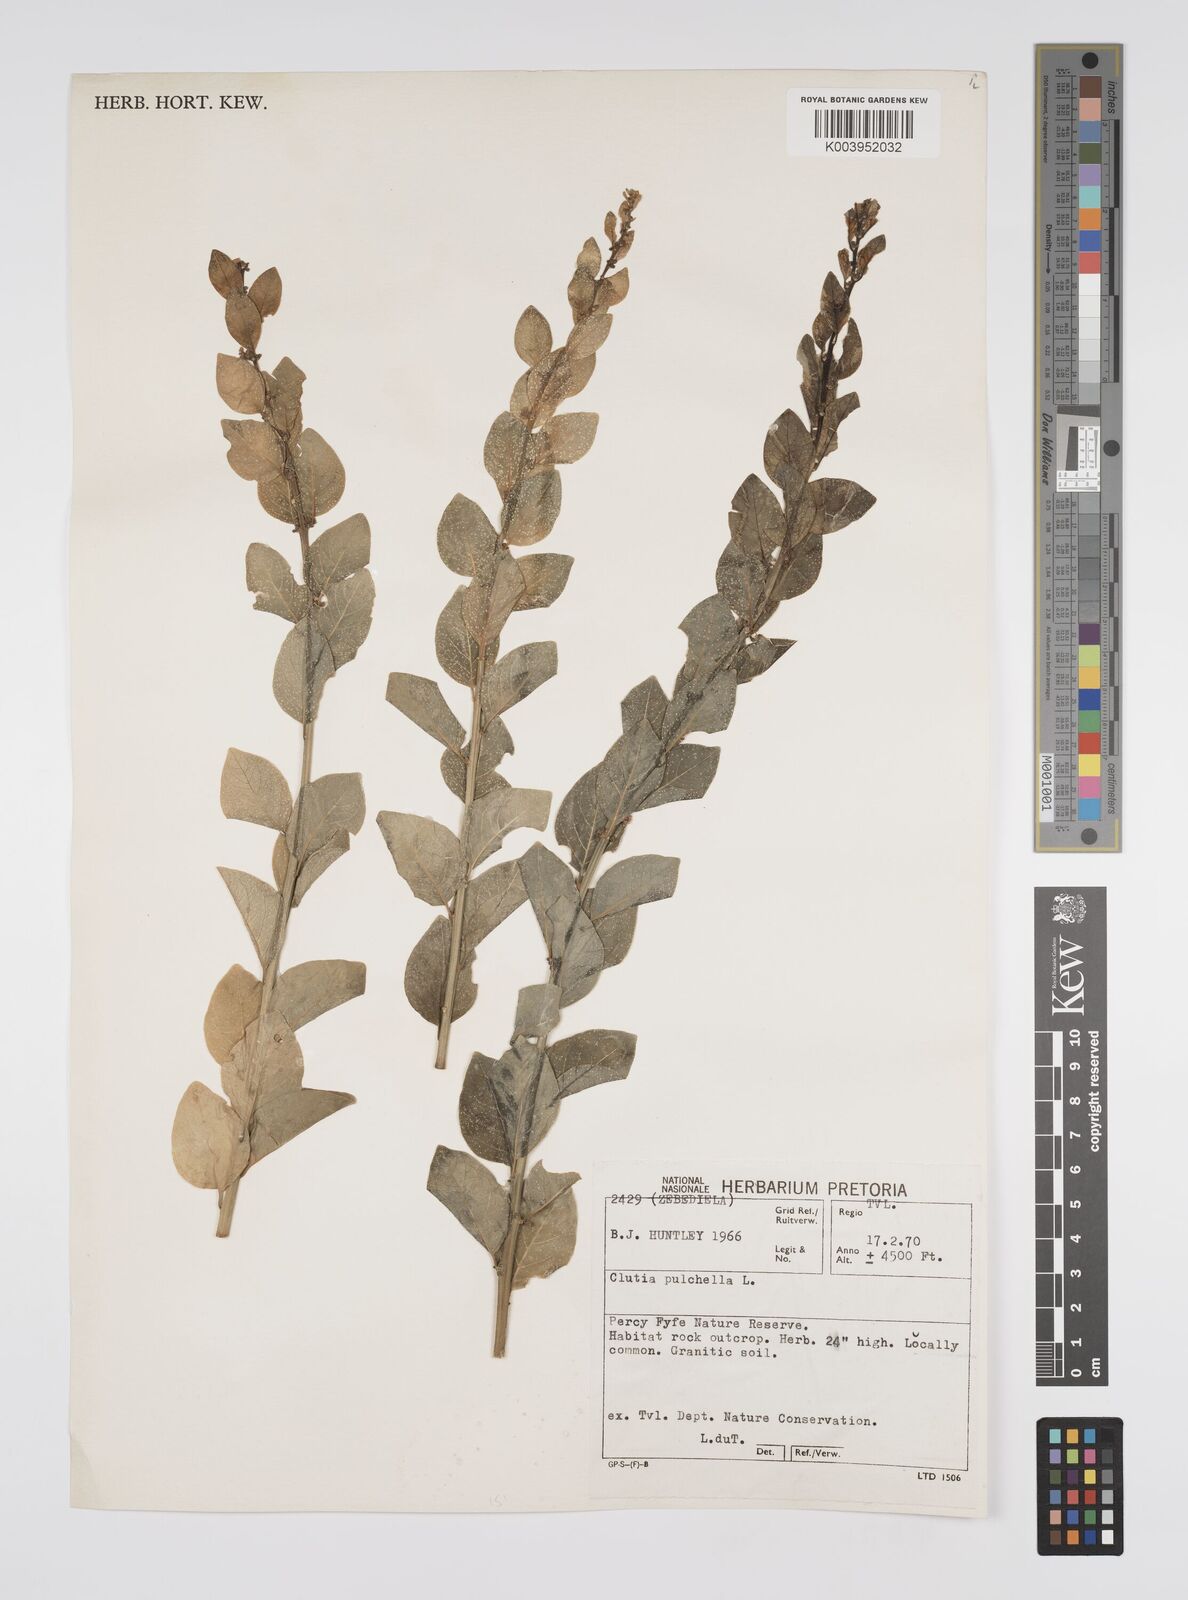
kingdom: Plantae
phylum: Tracheophyta
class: Magnoliopsida
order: Malpighiales
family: Peraceae
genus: Clutia
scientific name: Clutia pulchella
